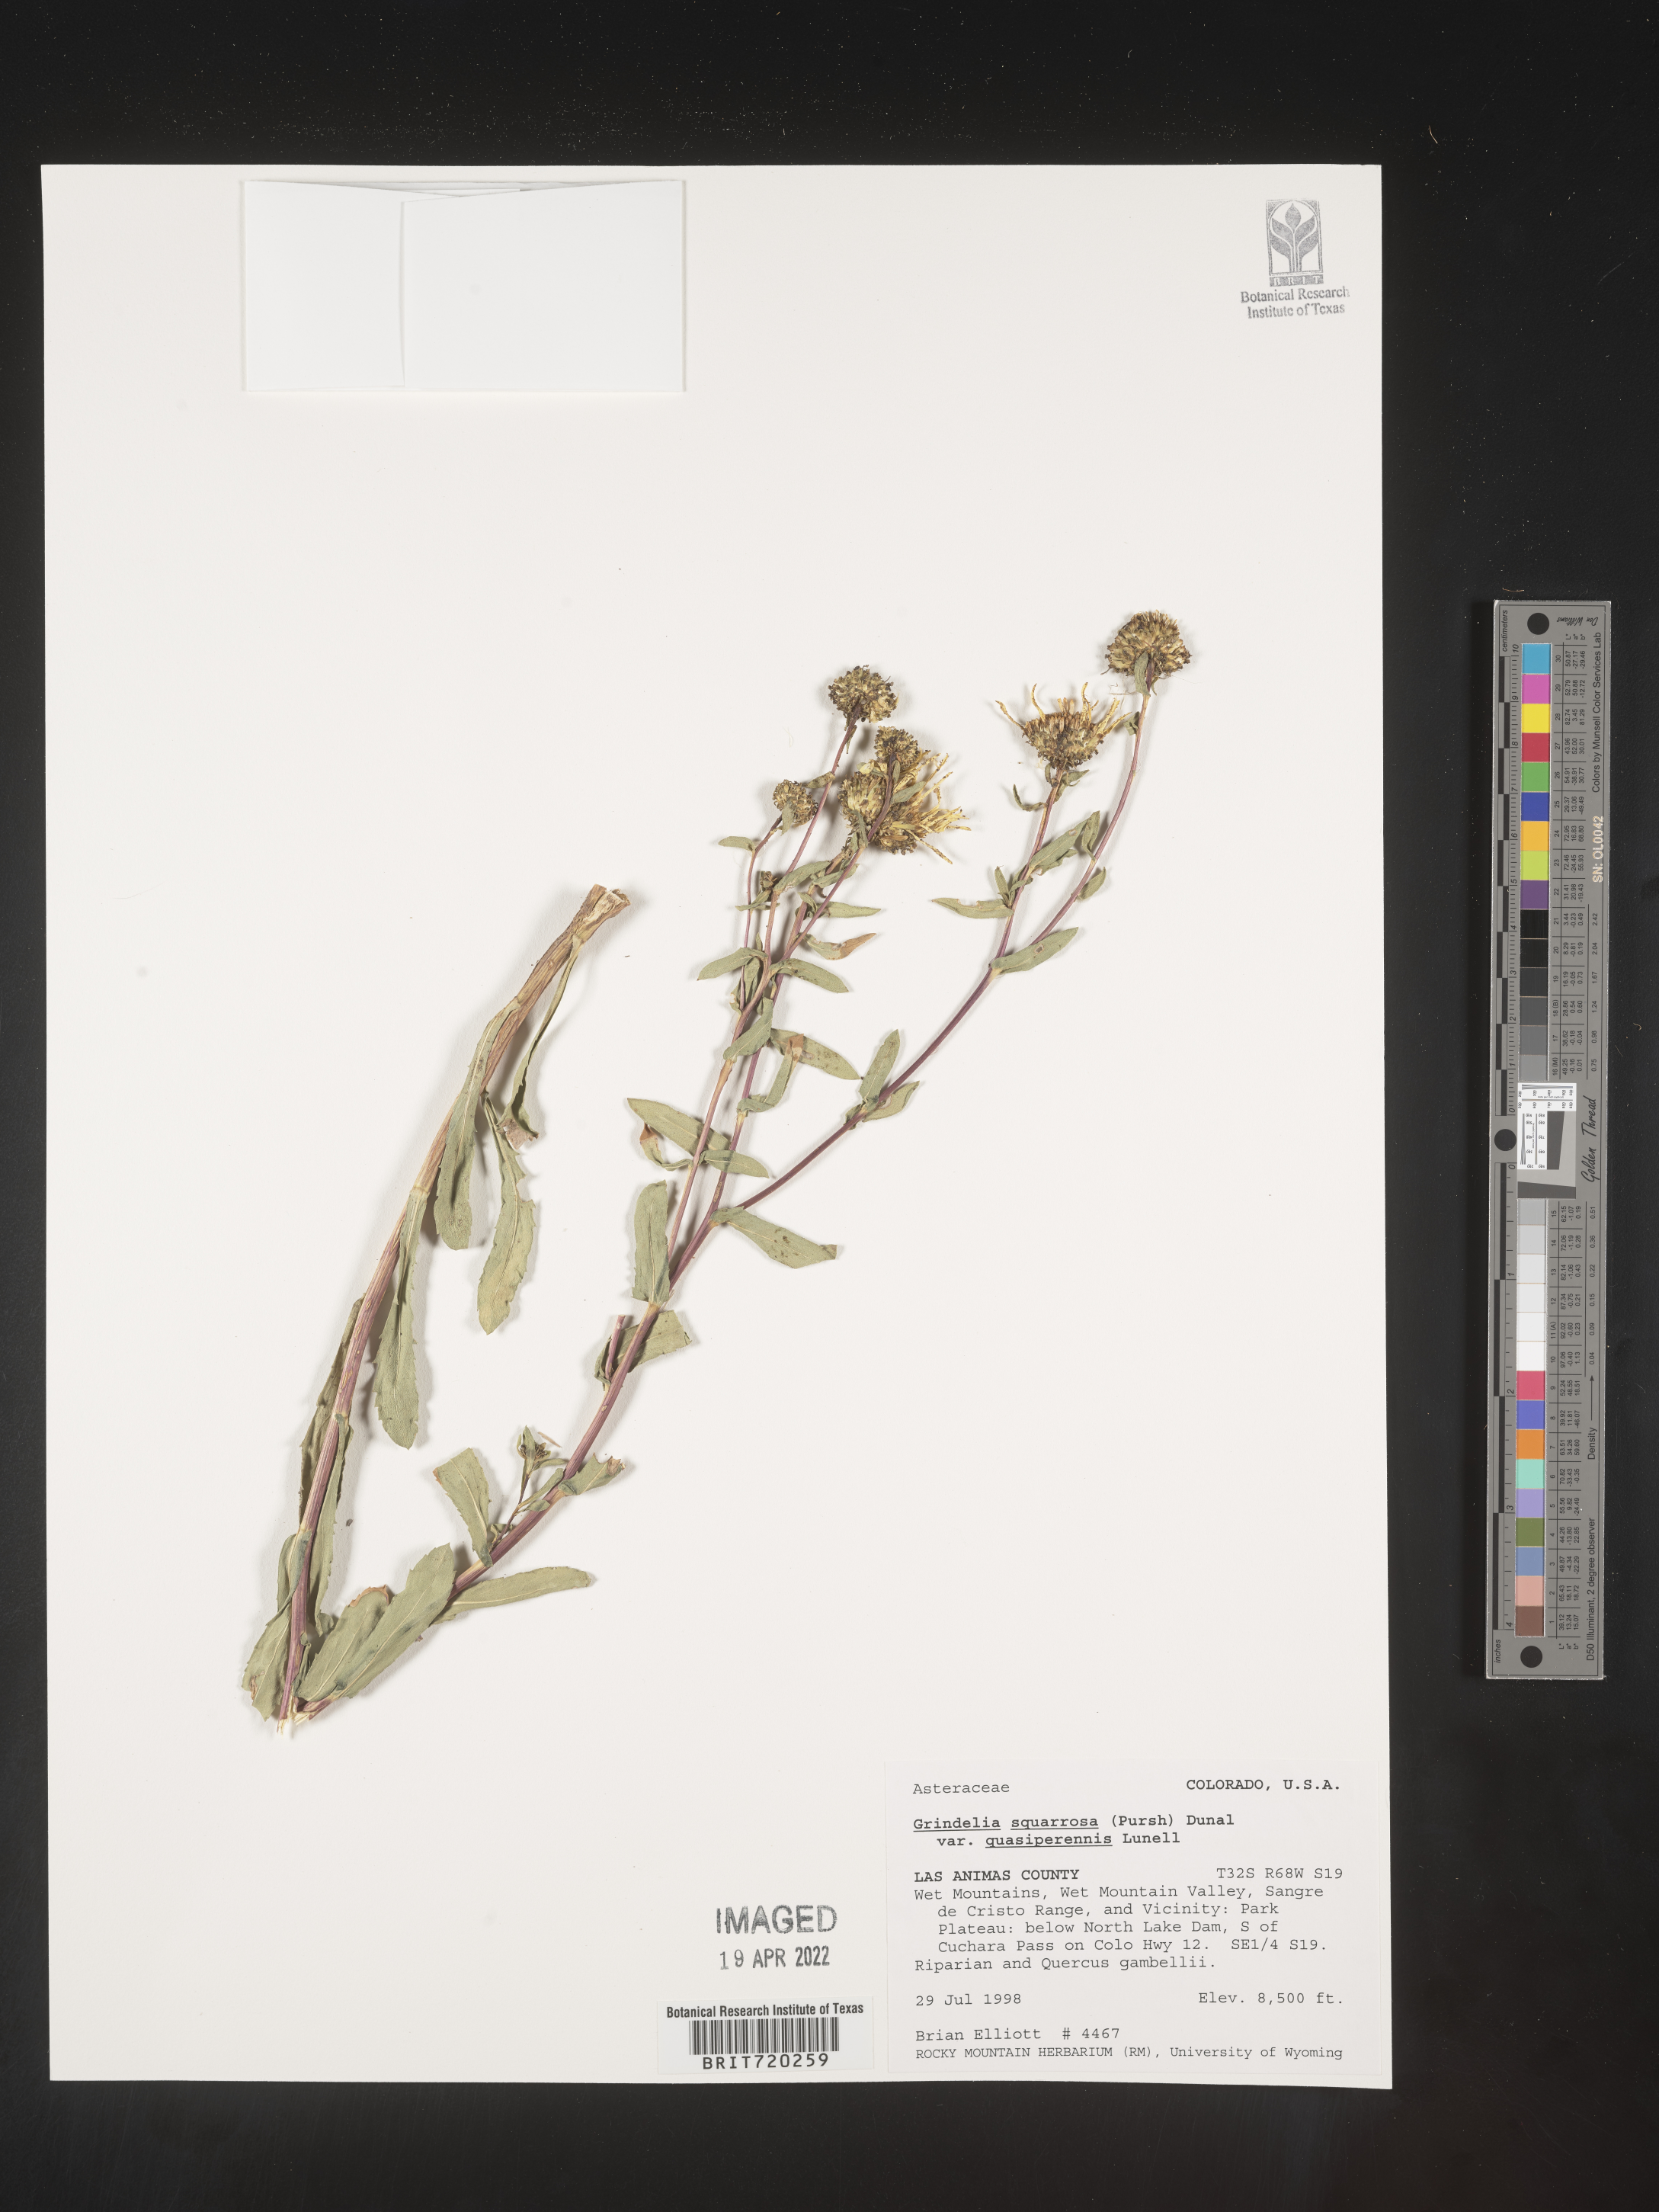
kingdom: Plantae
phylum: Tracheophyta
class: Magnoliopsida
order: Asterales
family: Asteraceae
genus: Grindelia
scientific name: Grindelia squarrosa
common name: Curly-cup gumweed
